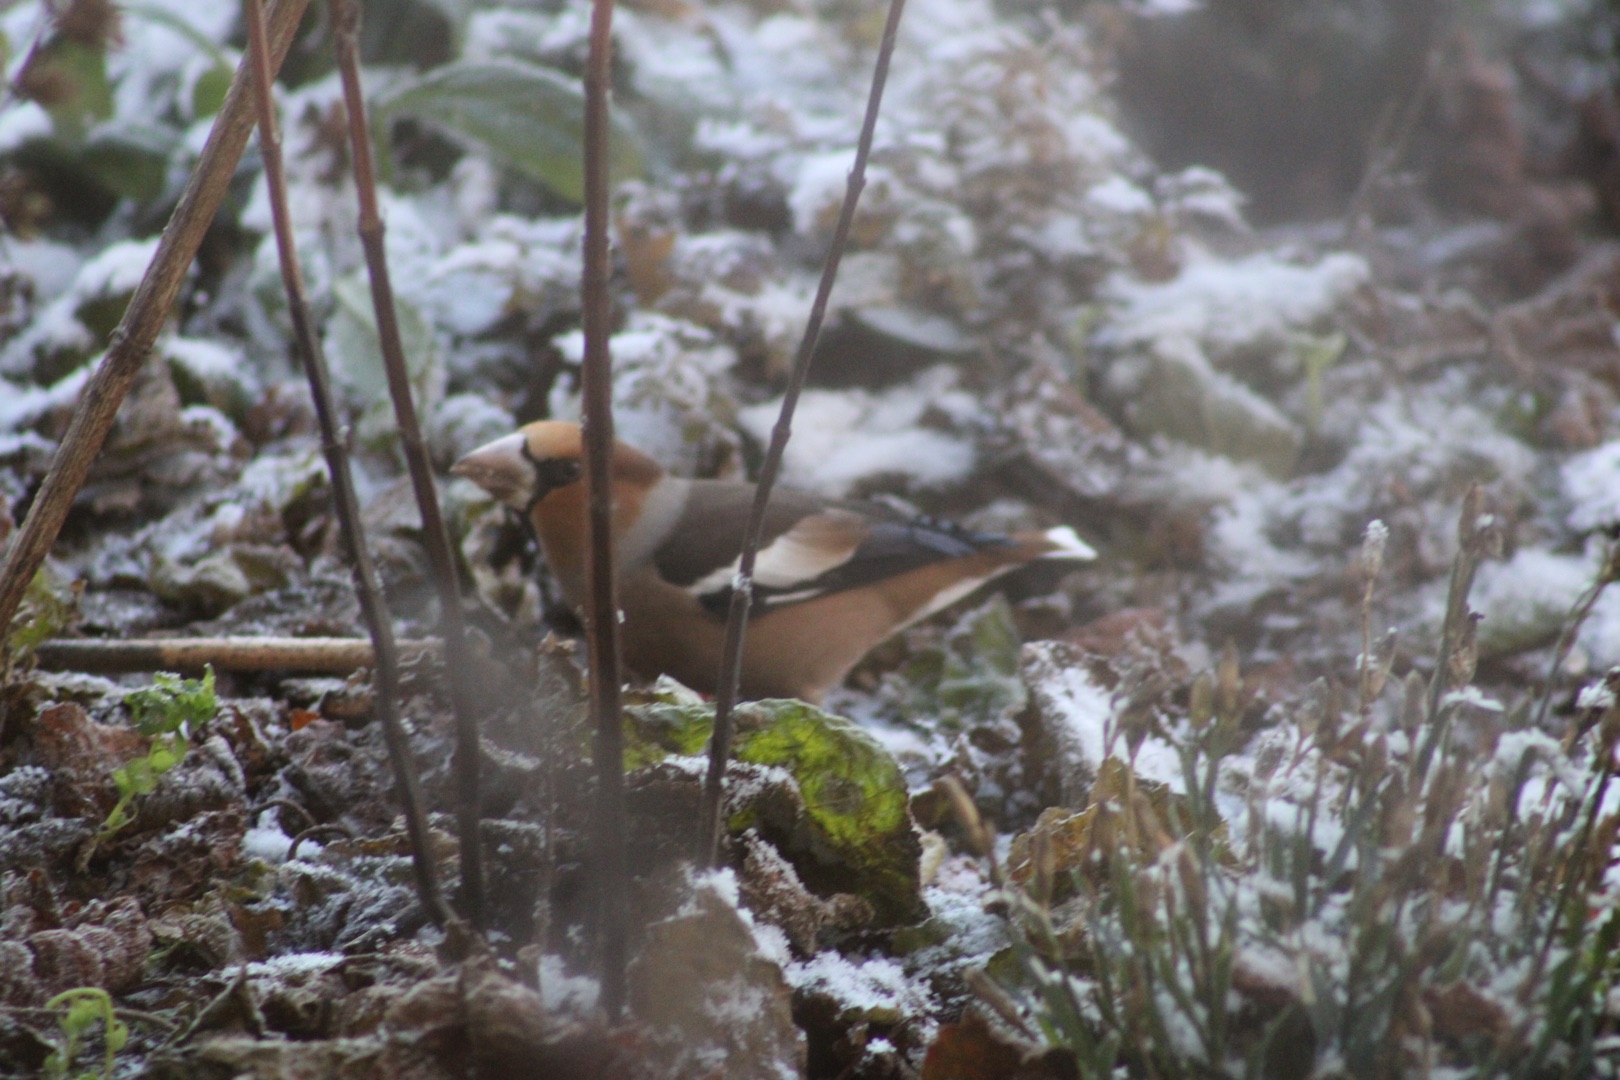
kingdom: Animalia
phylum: Chordata
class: Aves
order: Passeriformes
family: Fringillidae
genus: Coccothraustes
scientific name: Coccothraustes coccothraustes
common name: Kernebider
